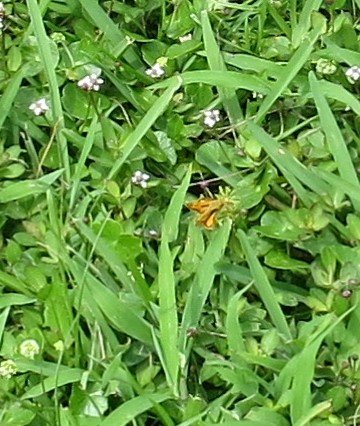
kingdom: Animalia
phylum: Arthropoda
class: Insecta
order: Lepidoptera
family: Hesperiidae
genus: Hylephila
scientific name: Hylephila phyleus
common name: Fiery Skipper
